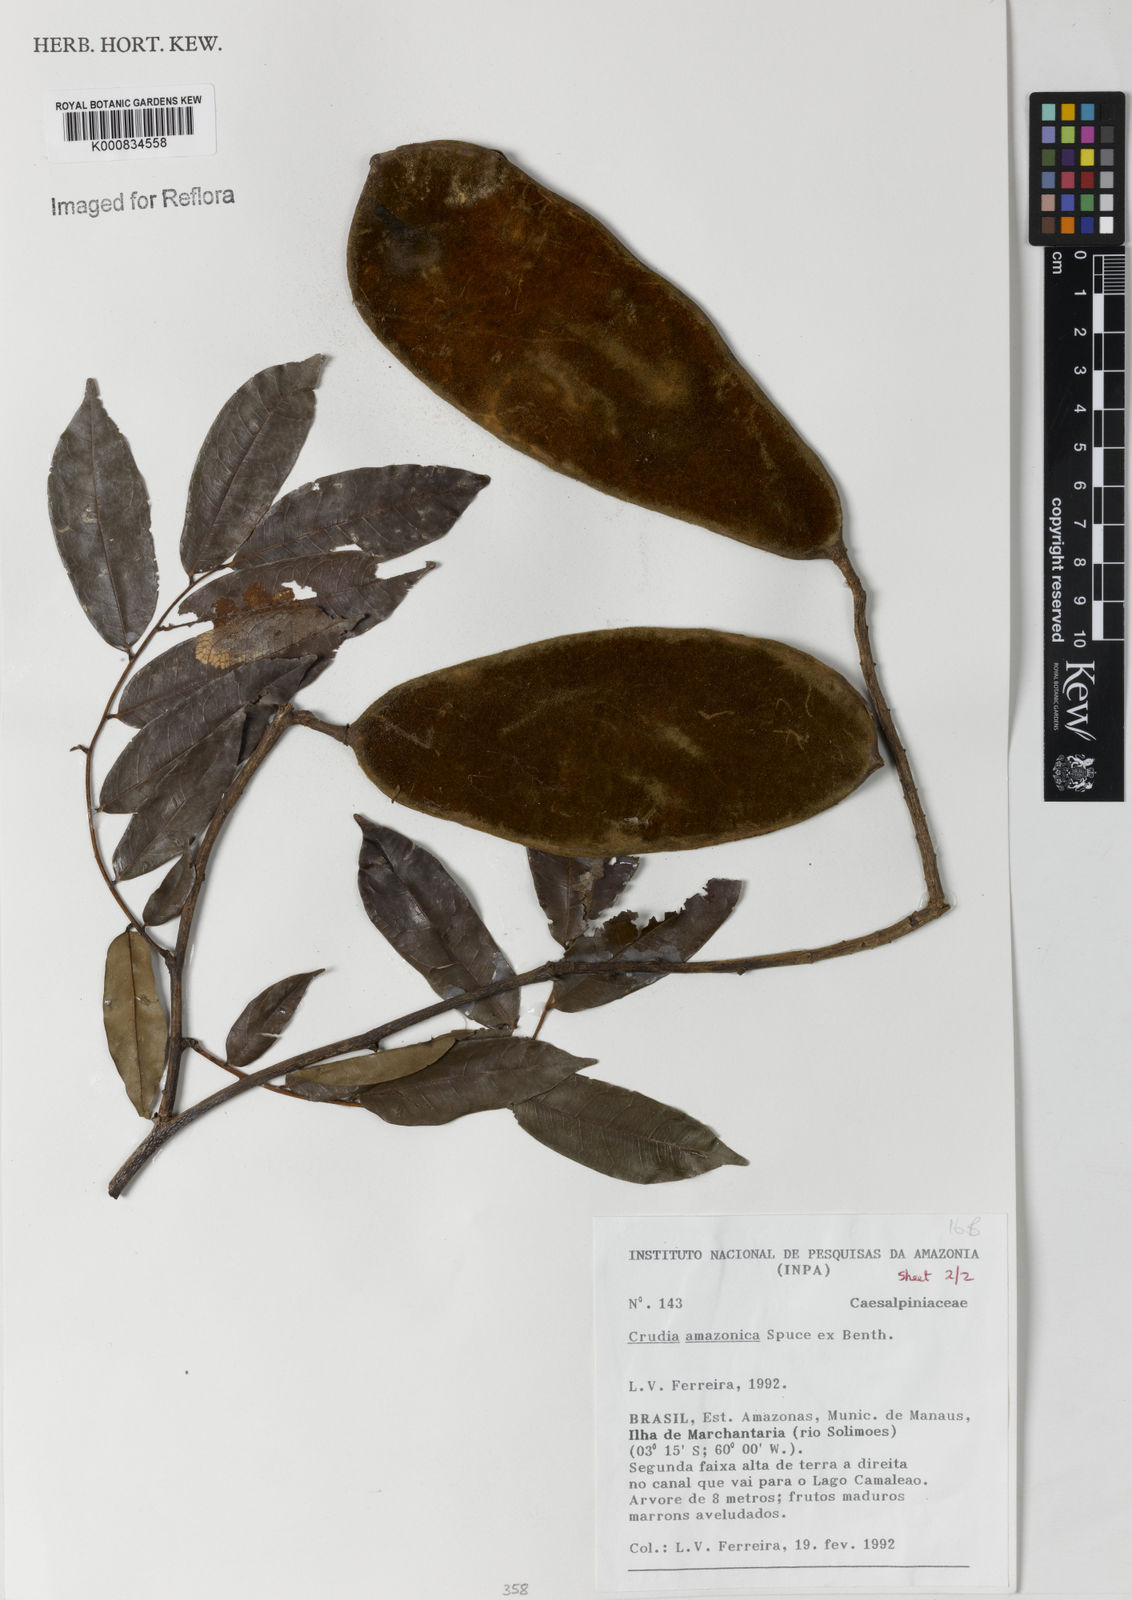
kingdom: Plantae
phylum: Tracheophyta
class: Magnoliopsida
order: Fabales
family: Fabaceae
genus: Crudia
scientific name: Crudia
